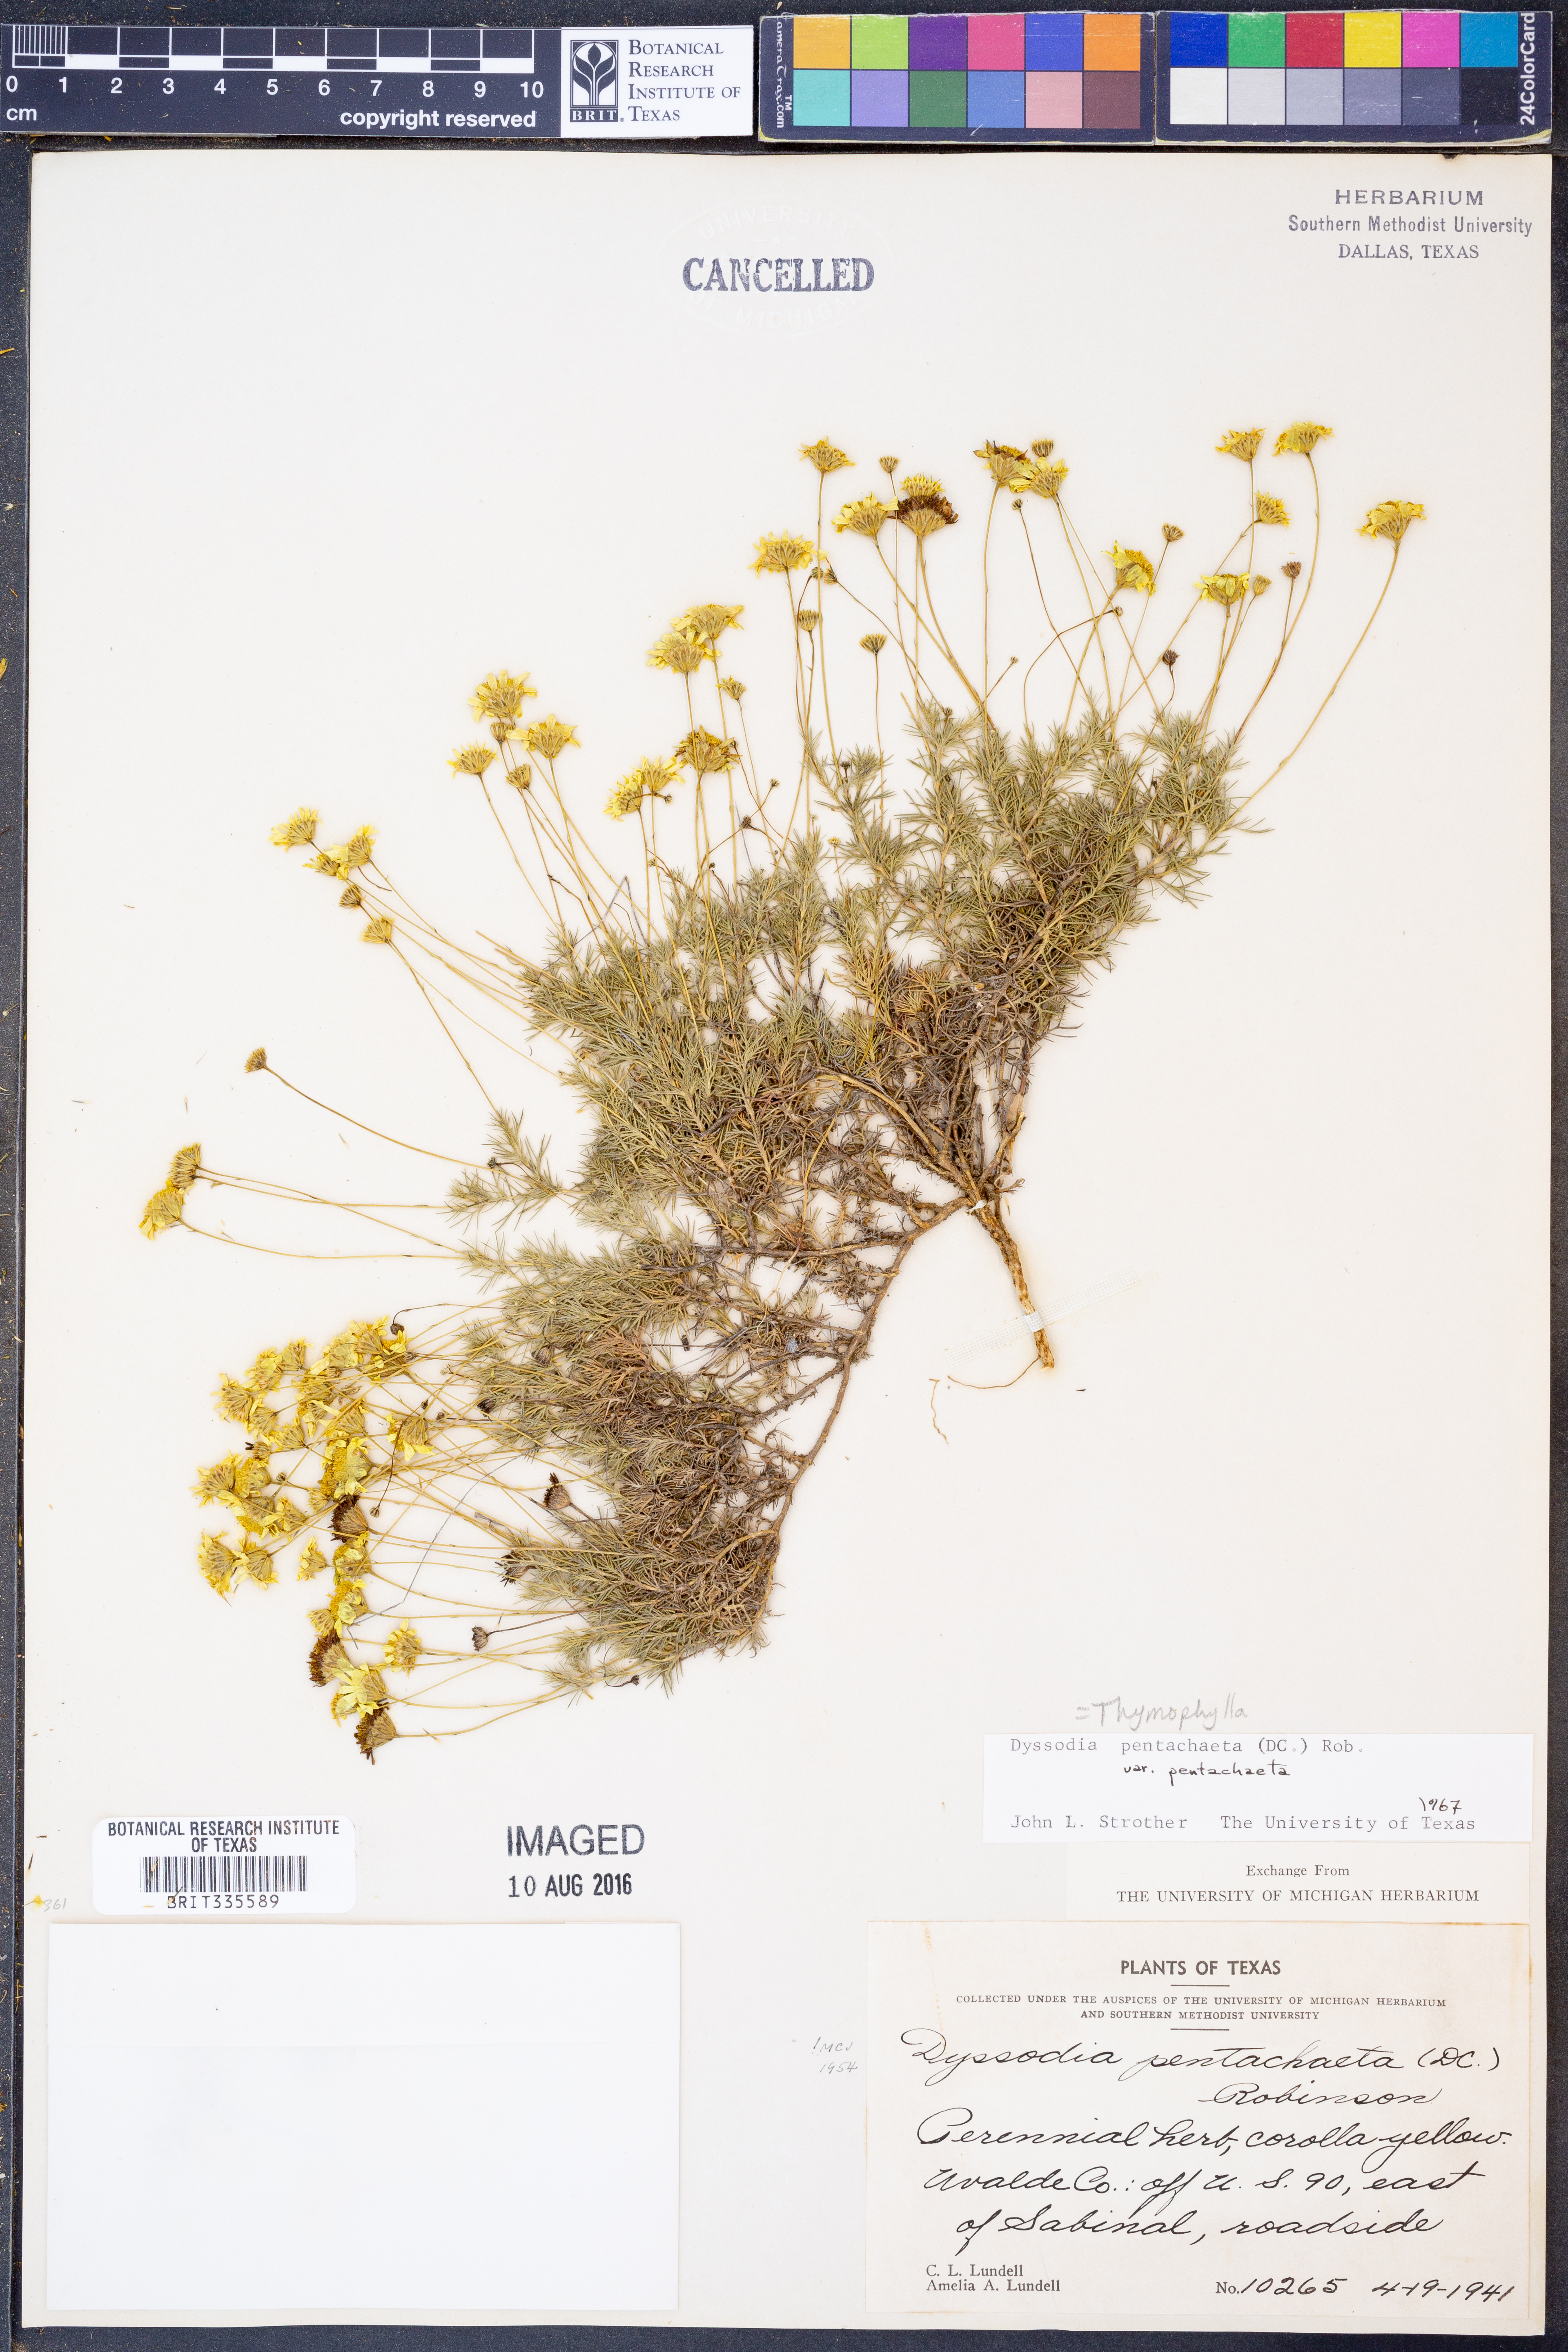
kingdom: Plantae
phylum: Tracheophyta
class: Magnoliopsida
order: Asterales
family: Asteraceae
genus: Thymophylla
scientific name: Thymophylla pentachaeta
